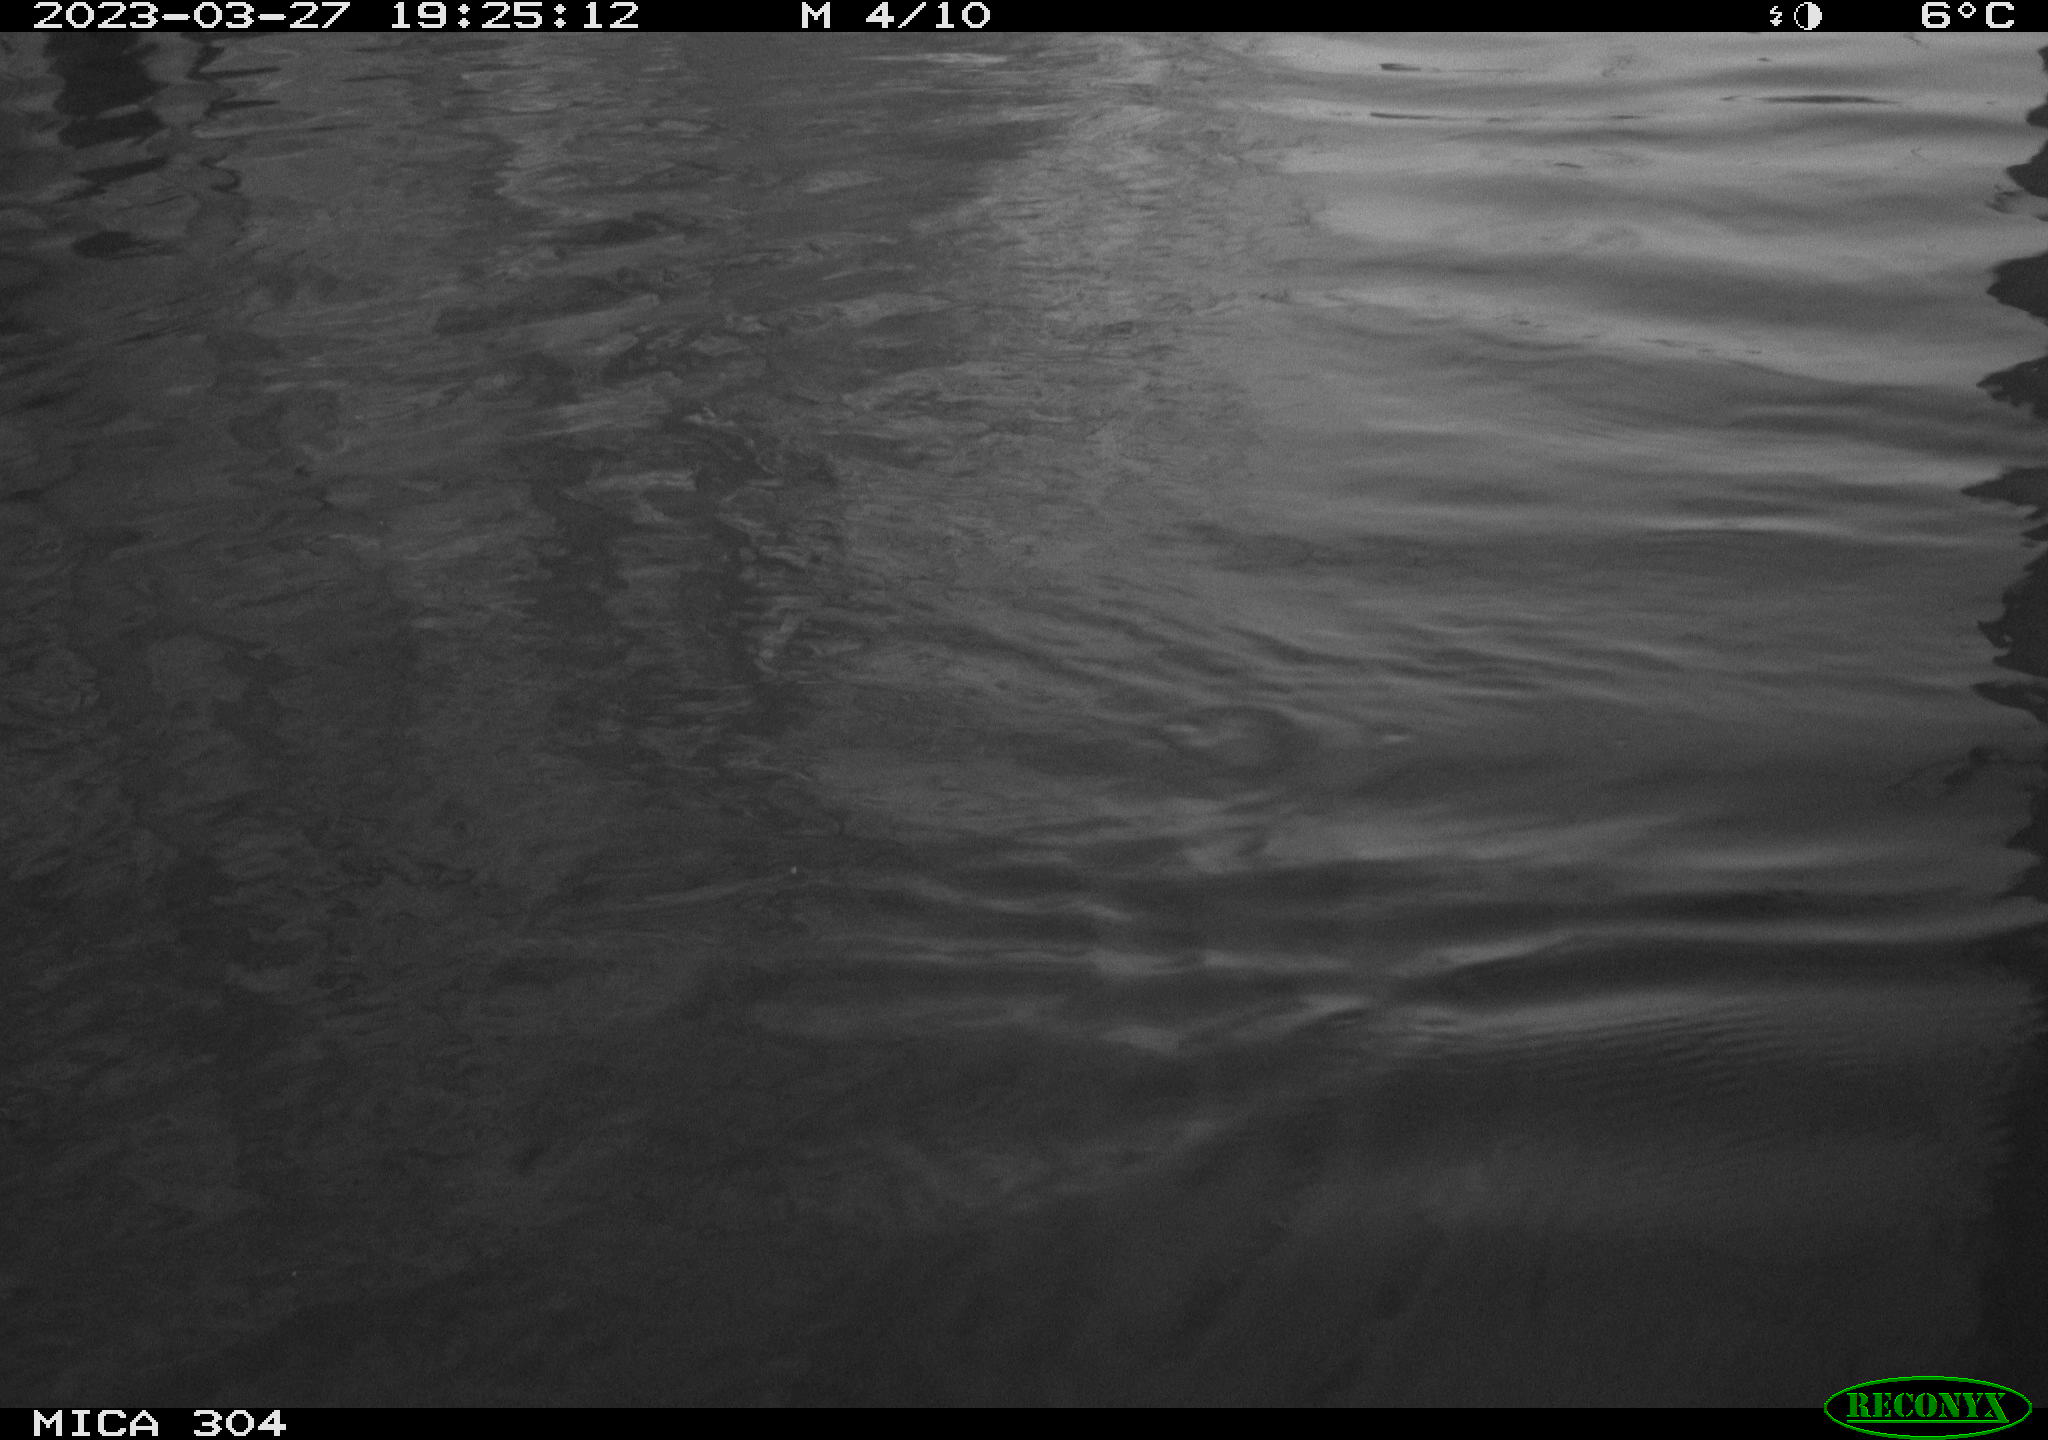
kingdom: Animalia
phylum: Chordata
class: Aves
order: Anseriformes
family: Anatidae
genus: Anas
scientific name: Anas
